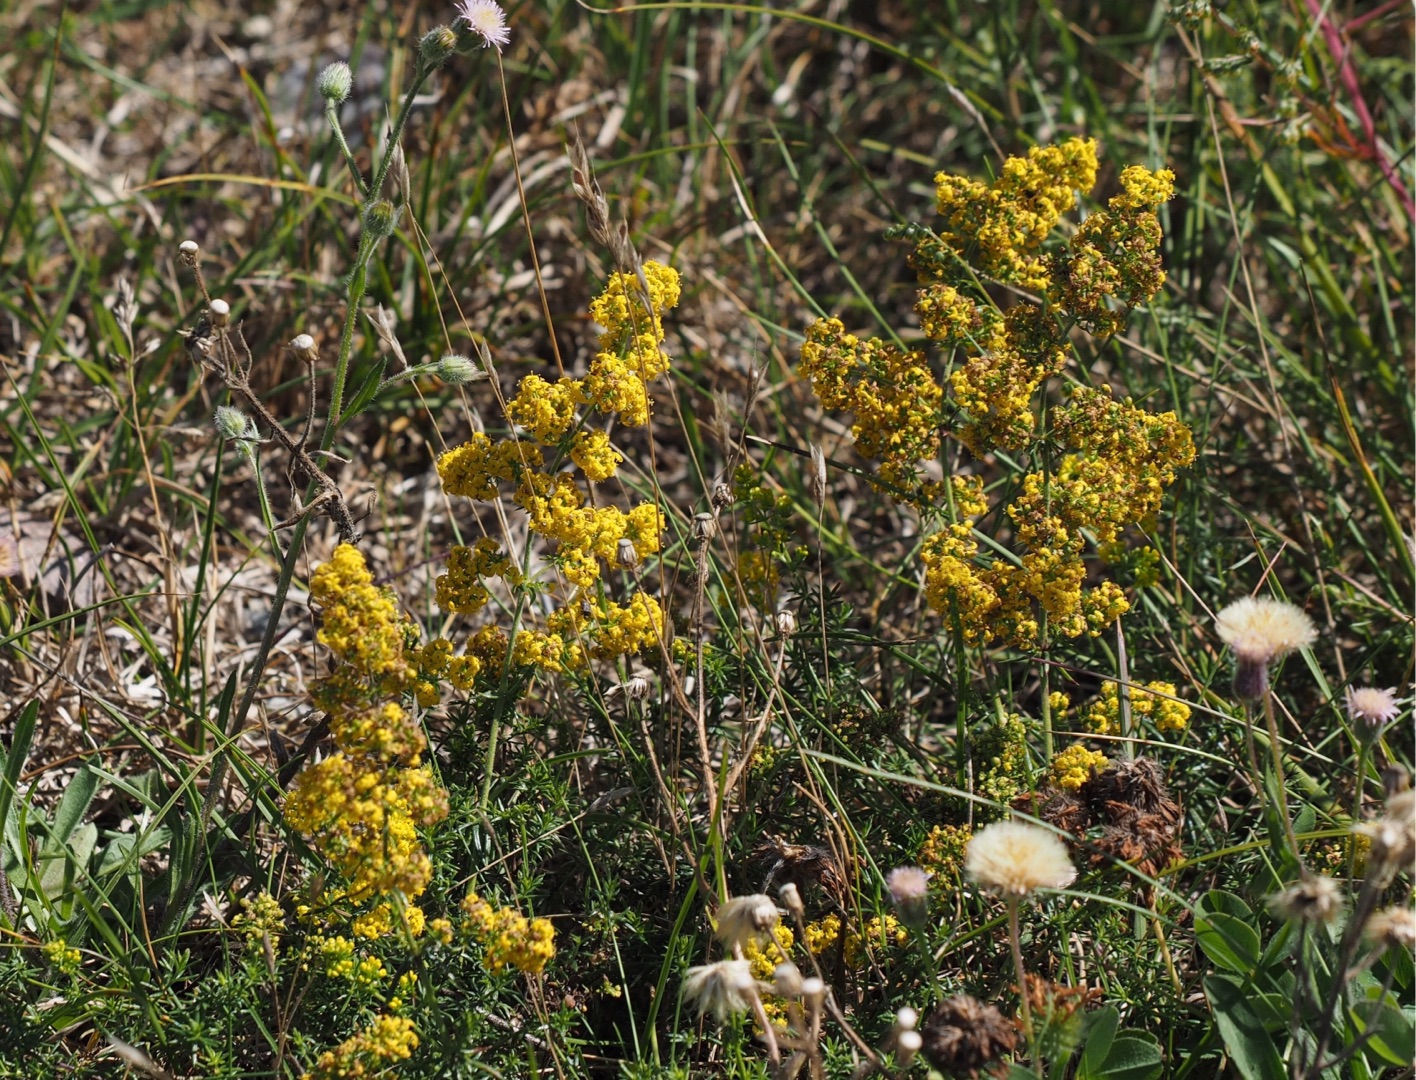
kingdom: Plantae
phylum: Tracheophyta
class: Magnoliopsida
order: Gentianales
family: Rubiaceae
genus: Galium
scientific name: Galium verum
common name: Gul snerre
